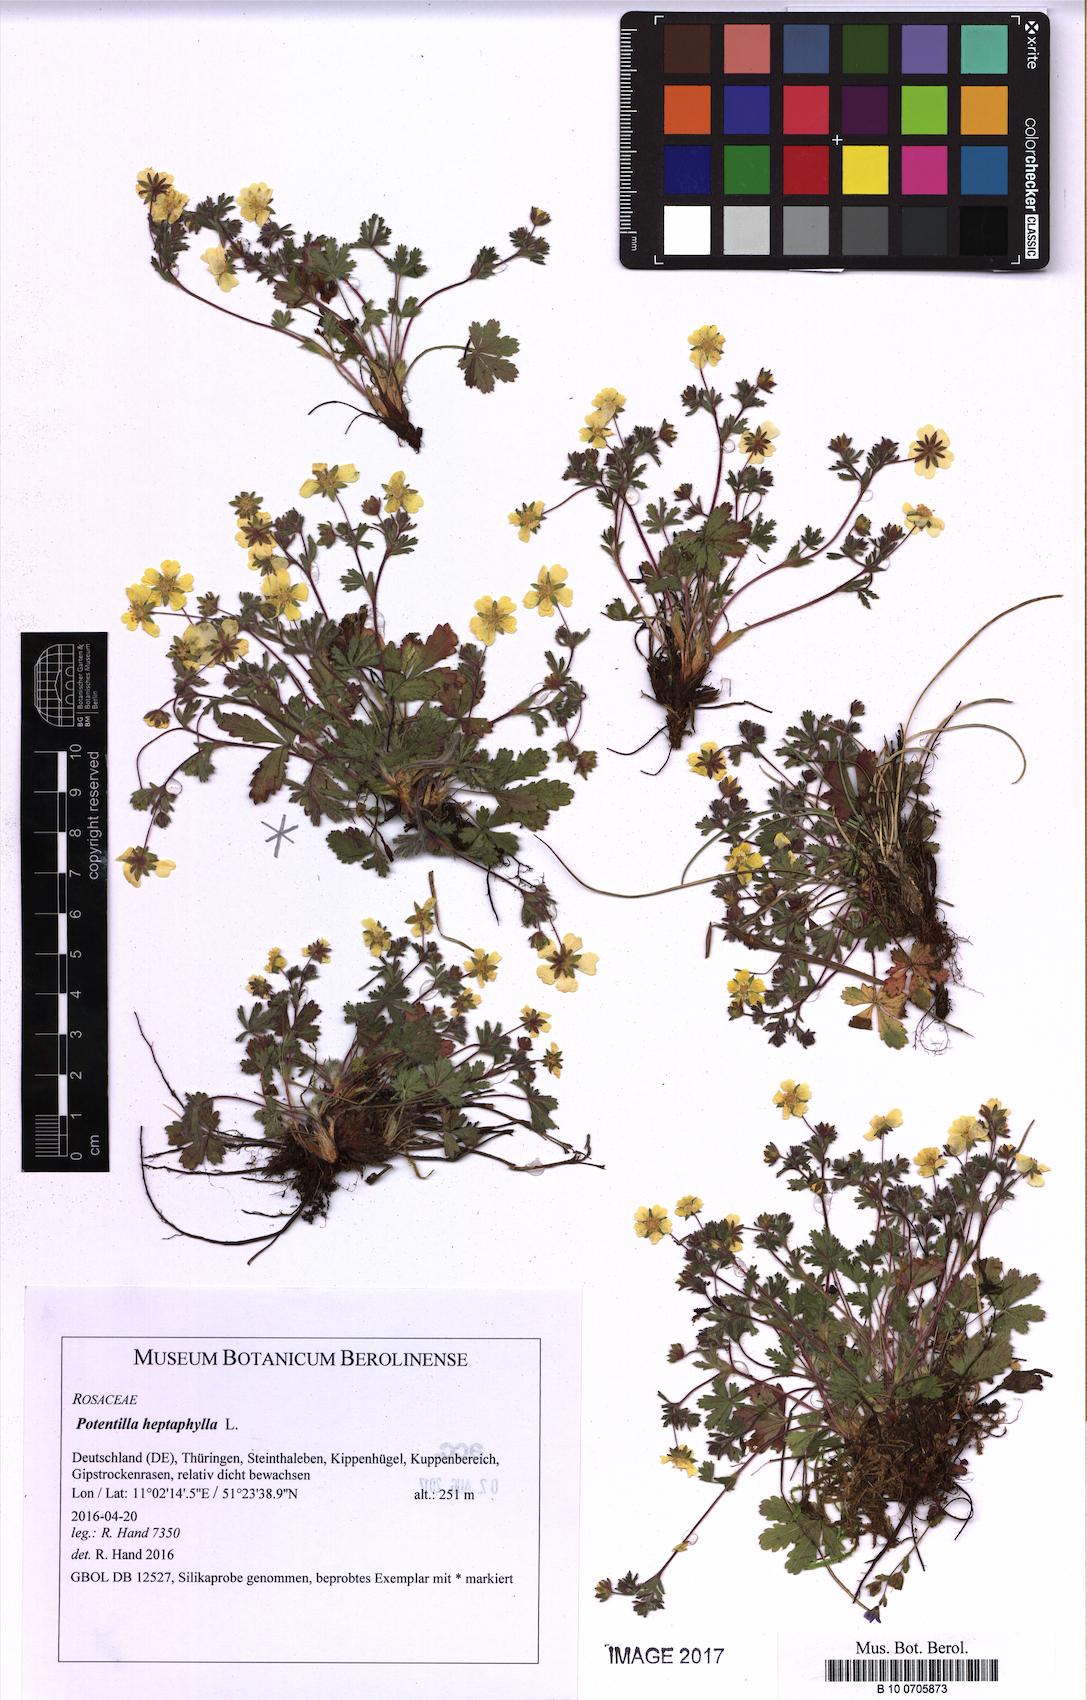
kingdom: Plantae
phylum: Tracheophyta
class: Magnoliopsida
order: Rosales
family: Rosaceae
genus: Potentilla
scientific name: Potentilla heptaphylla
